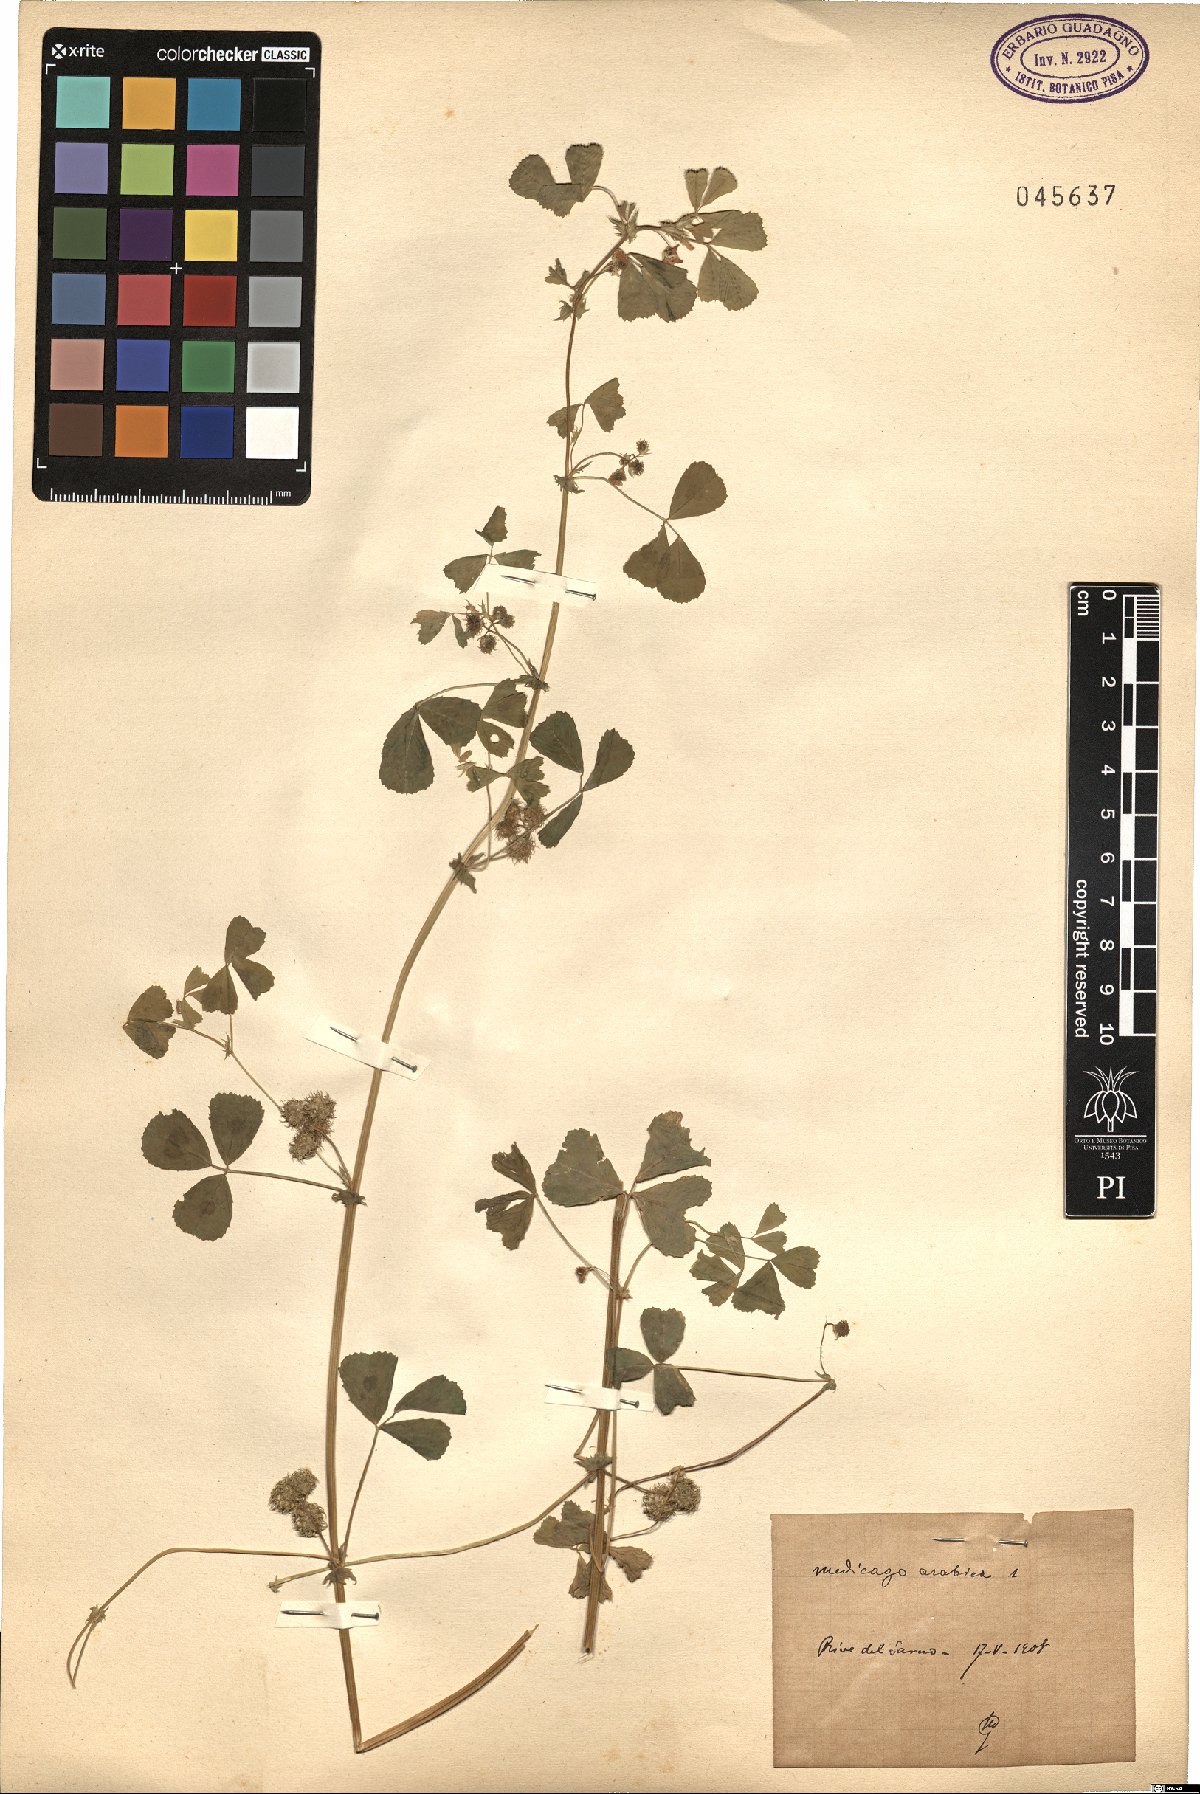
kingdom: Plantae
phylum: Tracheophyta
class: Magnoliopsida
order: Fabales
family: Fabaceae
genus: Medicago
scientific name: Medicago arabica
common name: Spotted medick
